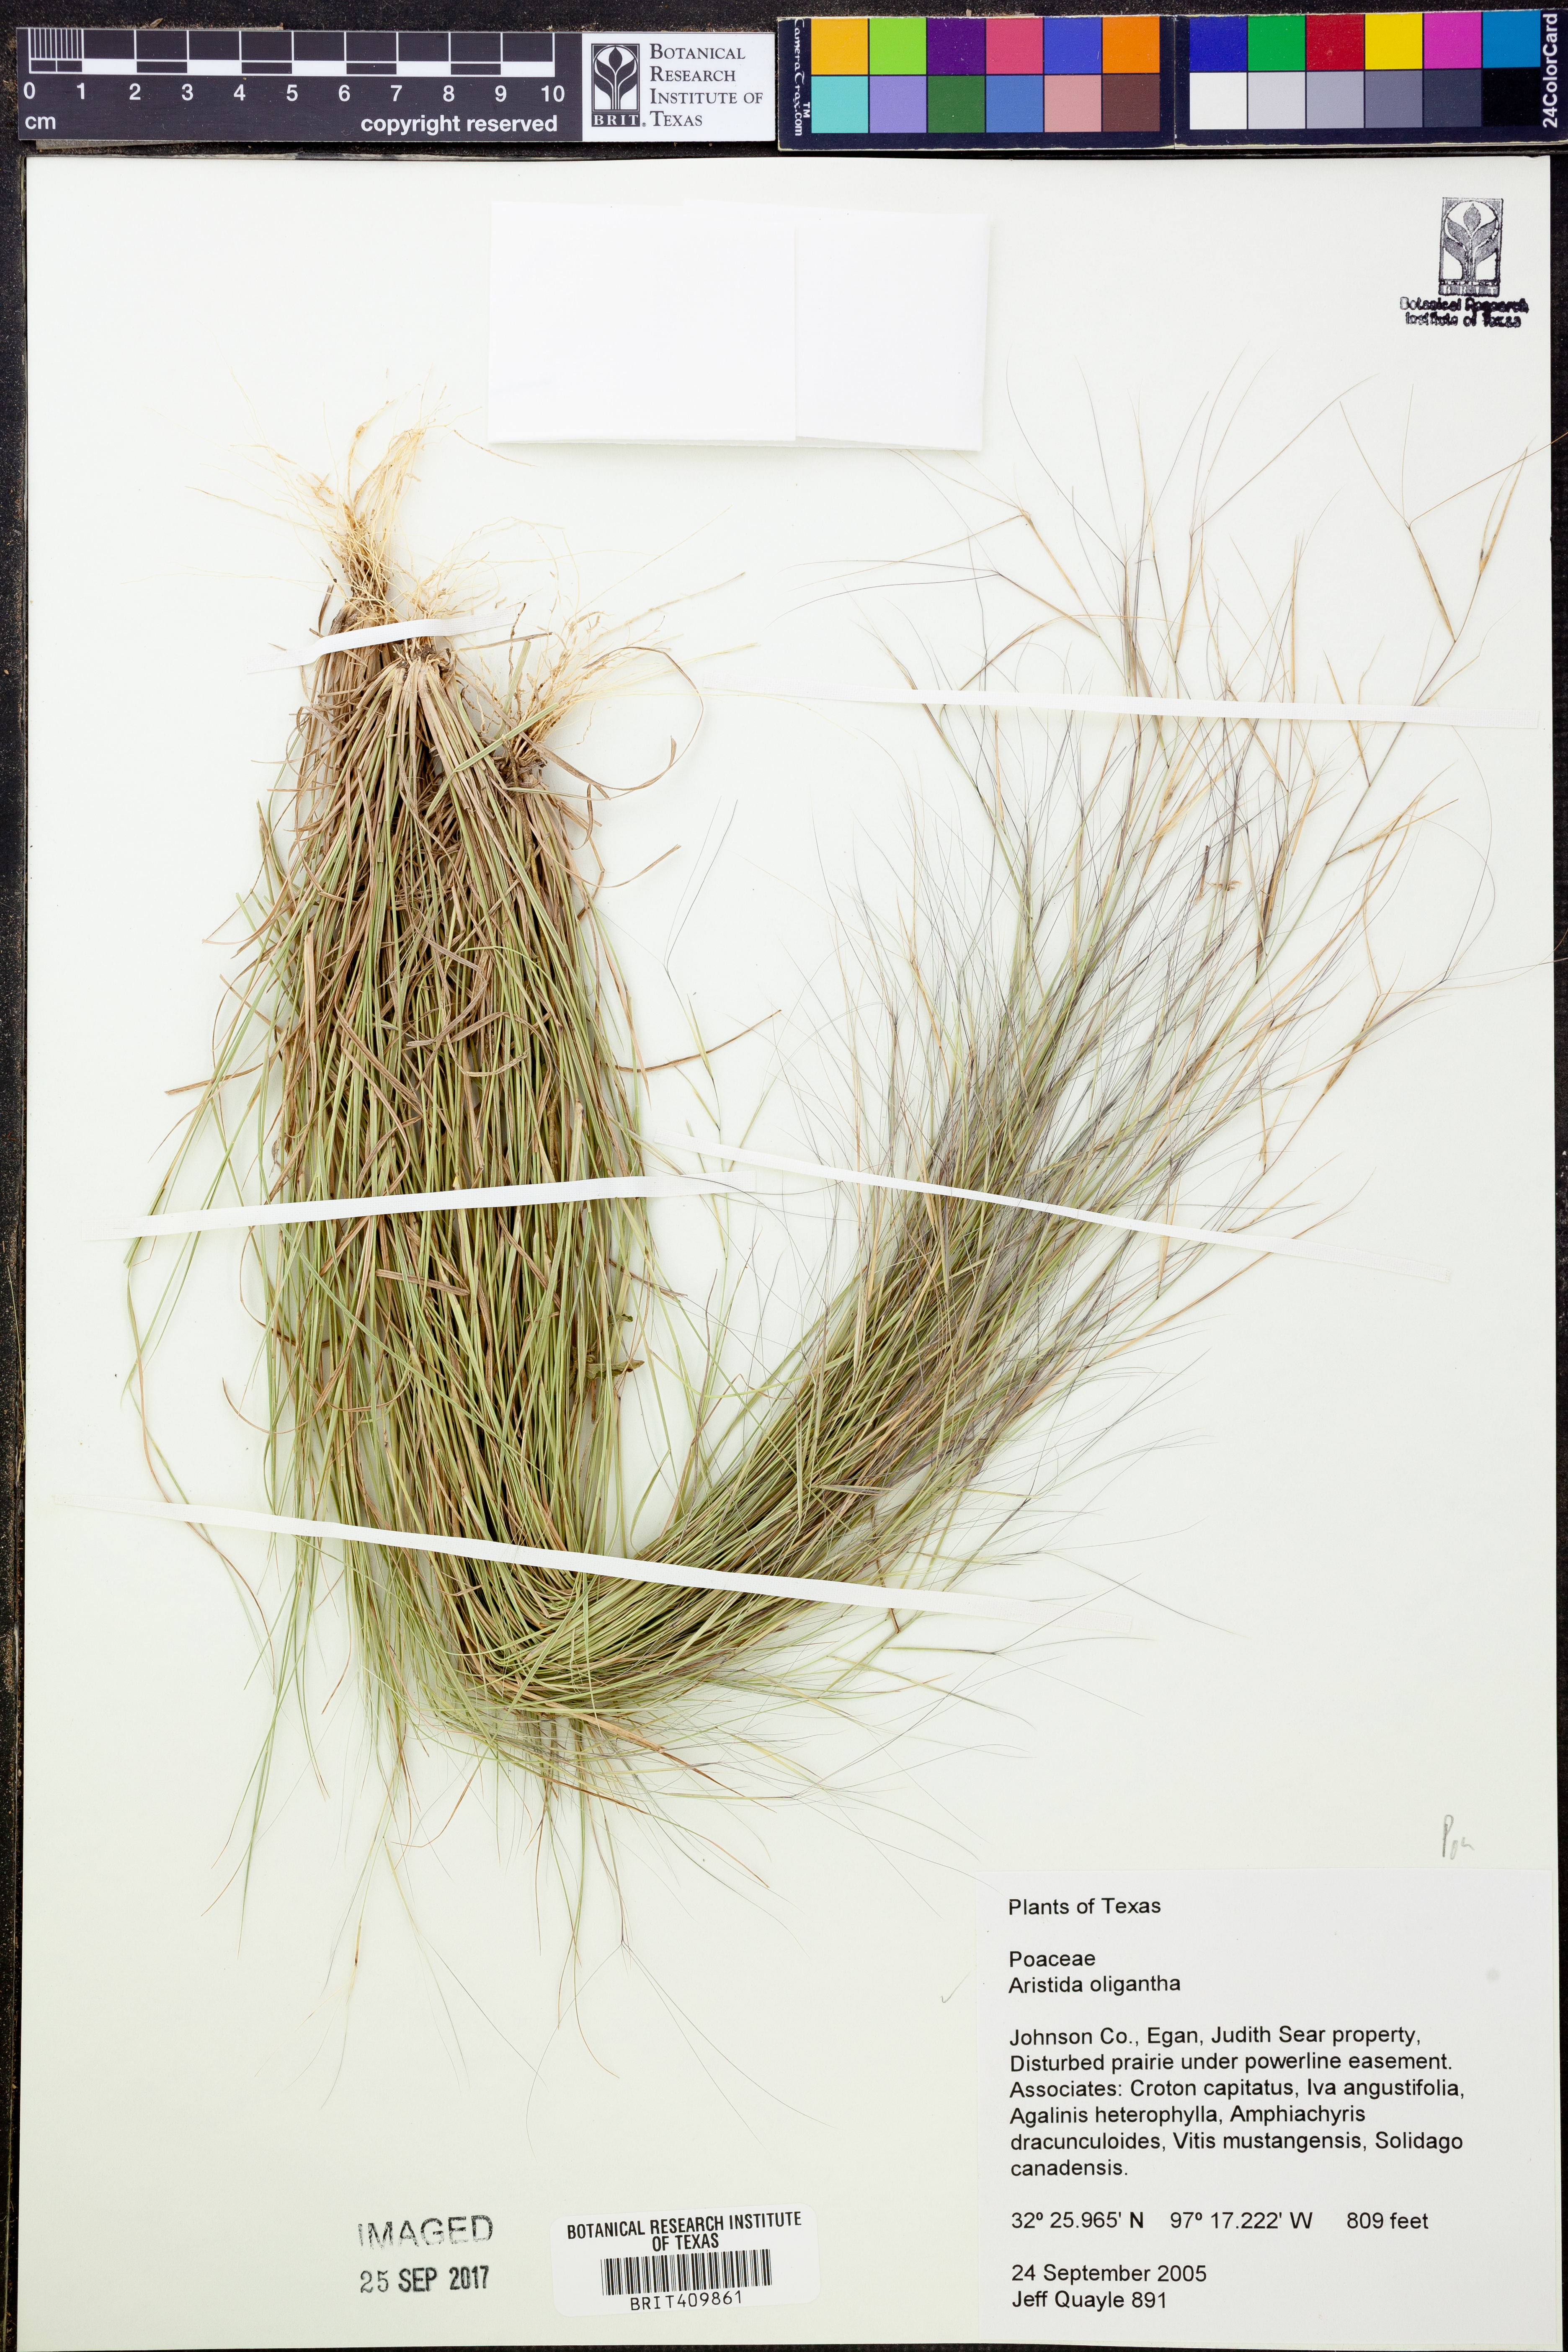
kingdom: Plantae
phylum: Tracheophyta
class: Liliopsida
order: Poales
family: Poaceae
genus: Aristida
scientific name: Aristida oligantha
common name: Few-flowered aristida
